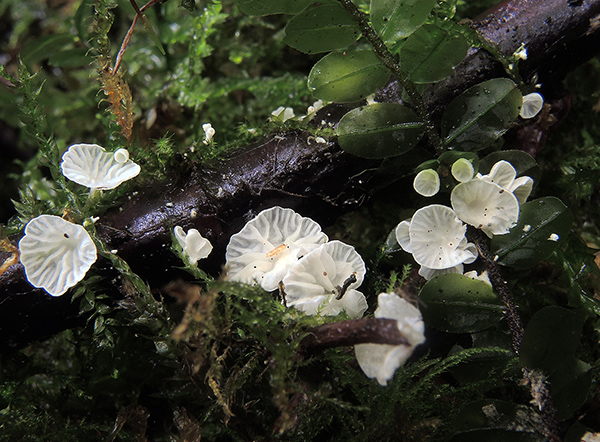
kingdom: Fungi
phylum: Basidiomycota
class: Agaricomycetes
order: Agaricales
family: Tricholomataceae
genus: Rimbachia
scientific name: Rimbachia bryophila
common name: året mosskål
